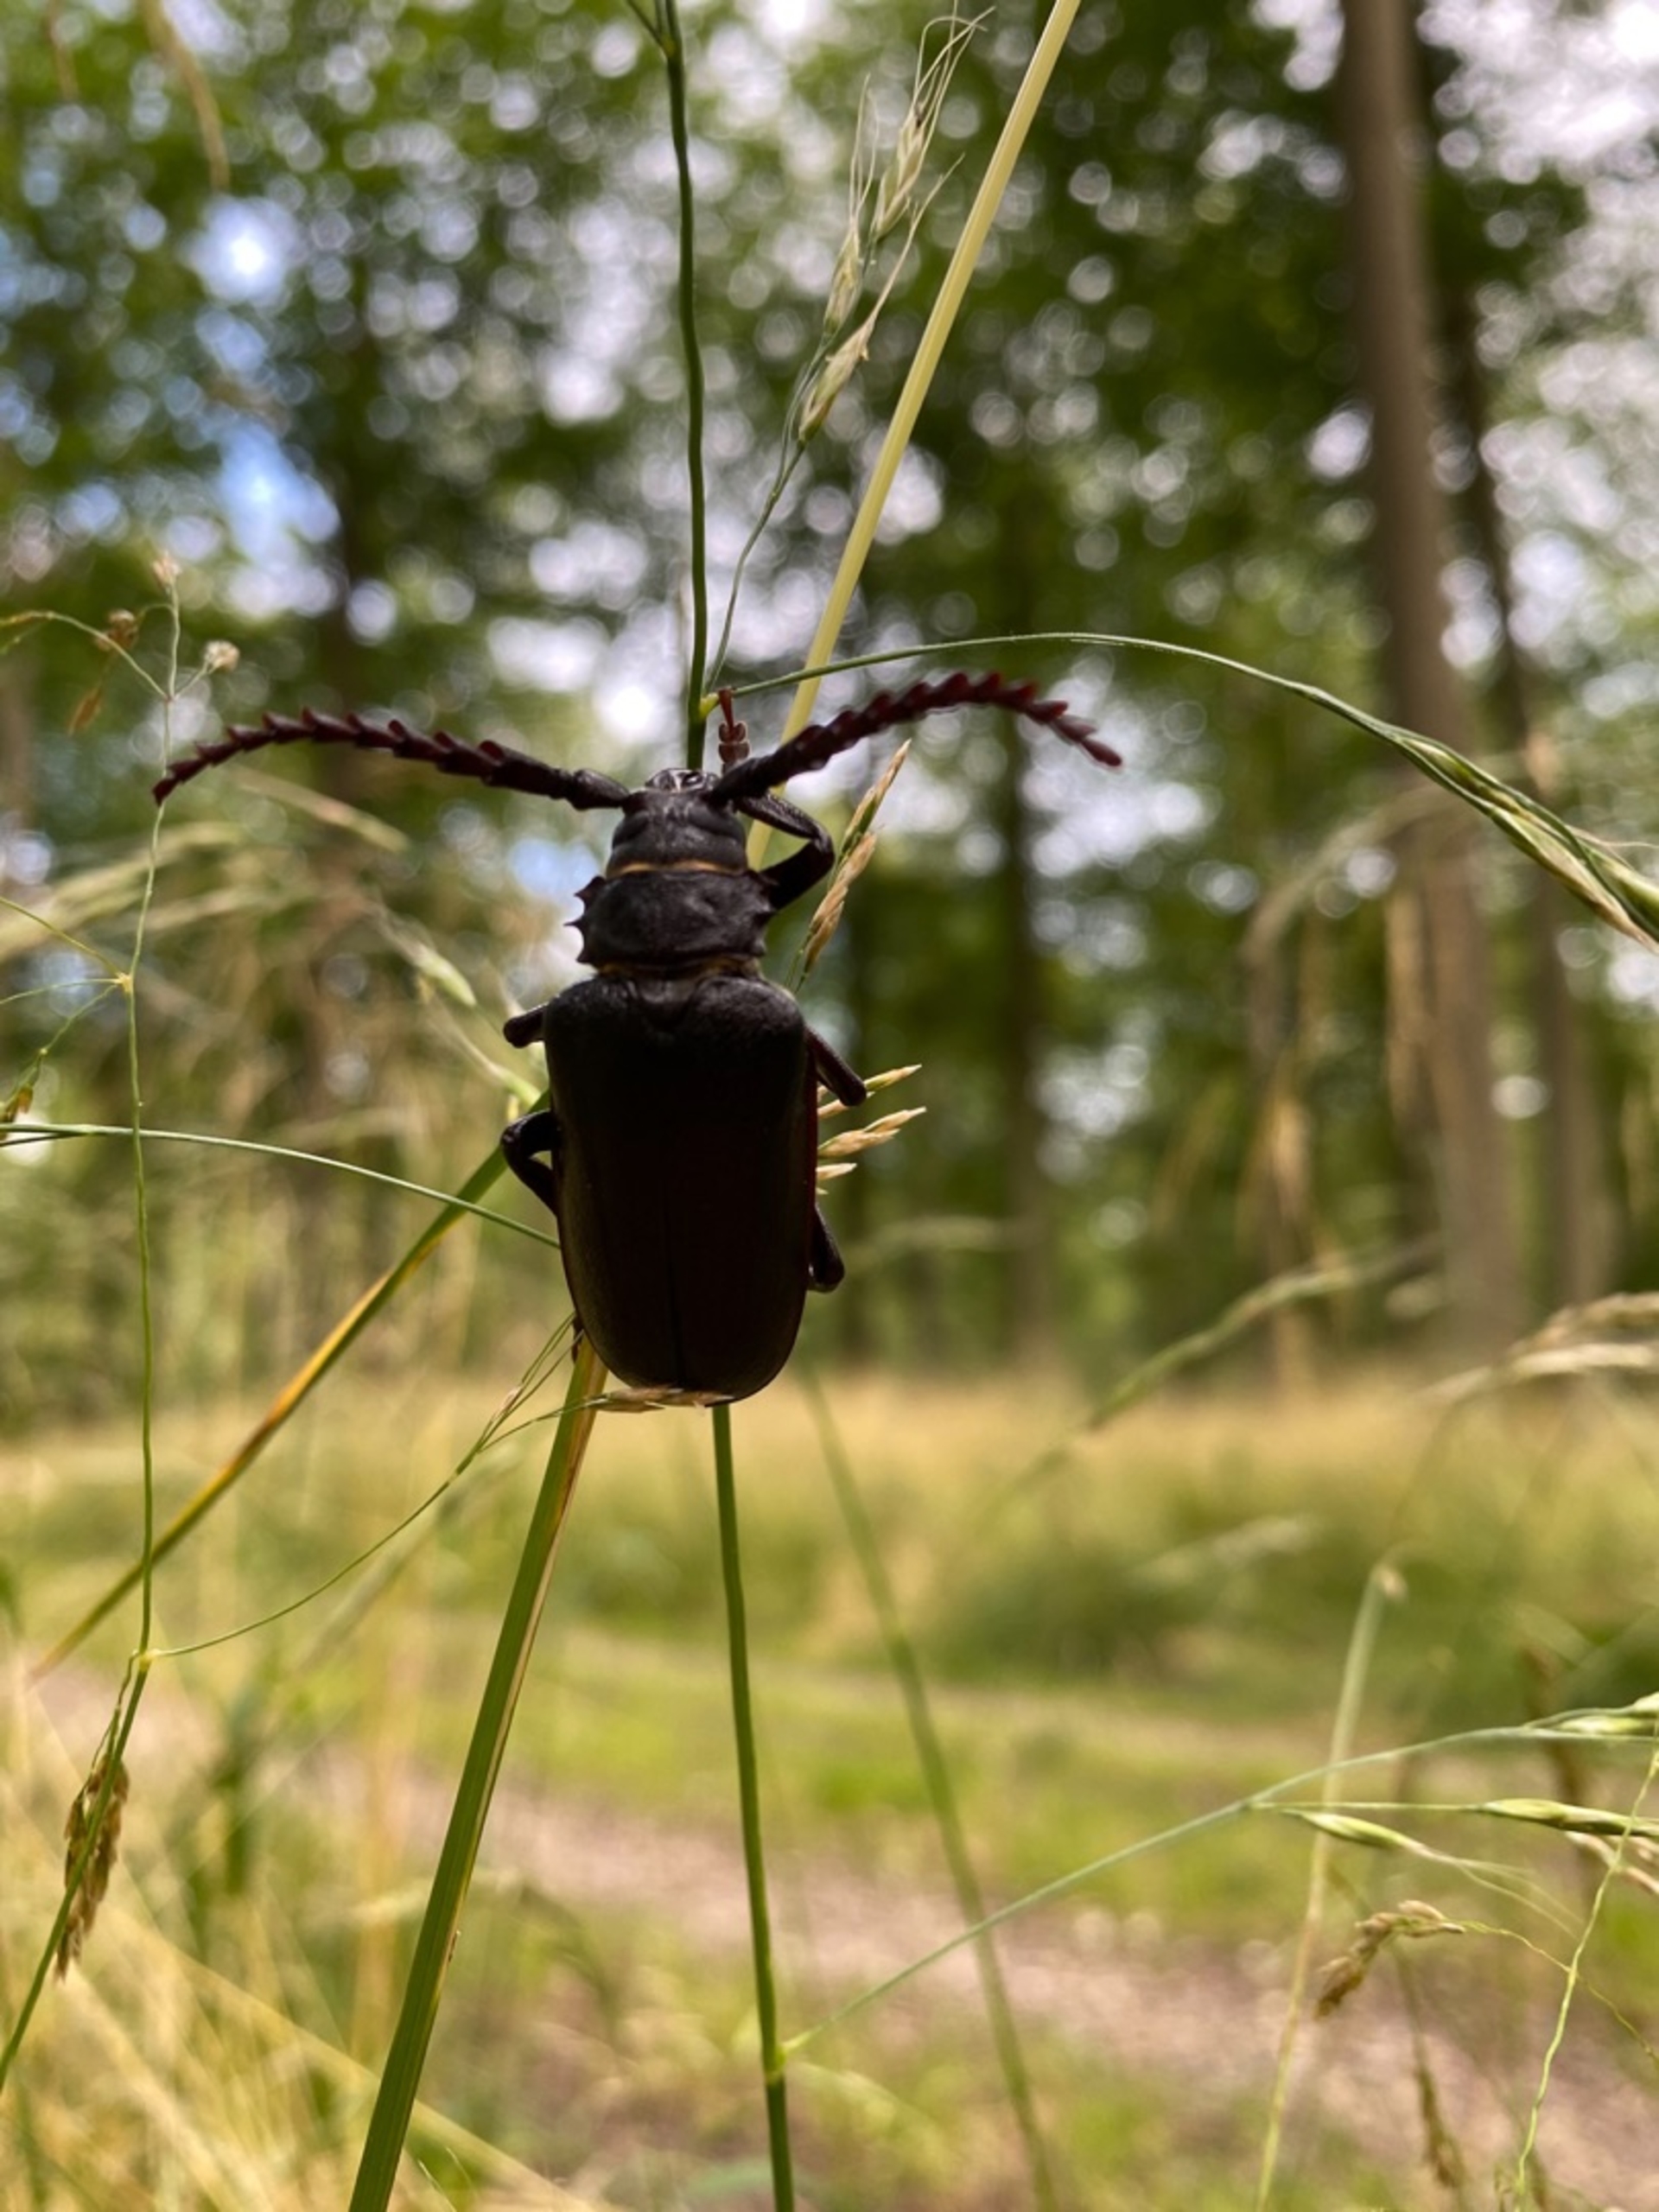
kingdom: Animalia
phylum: Arthropoda
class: Insecta
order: Coleoptera
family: Cerambycidae
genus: Prionus
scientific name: Prionus coriarius
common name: Garver
